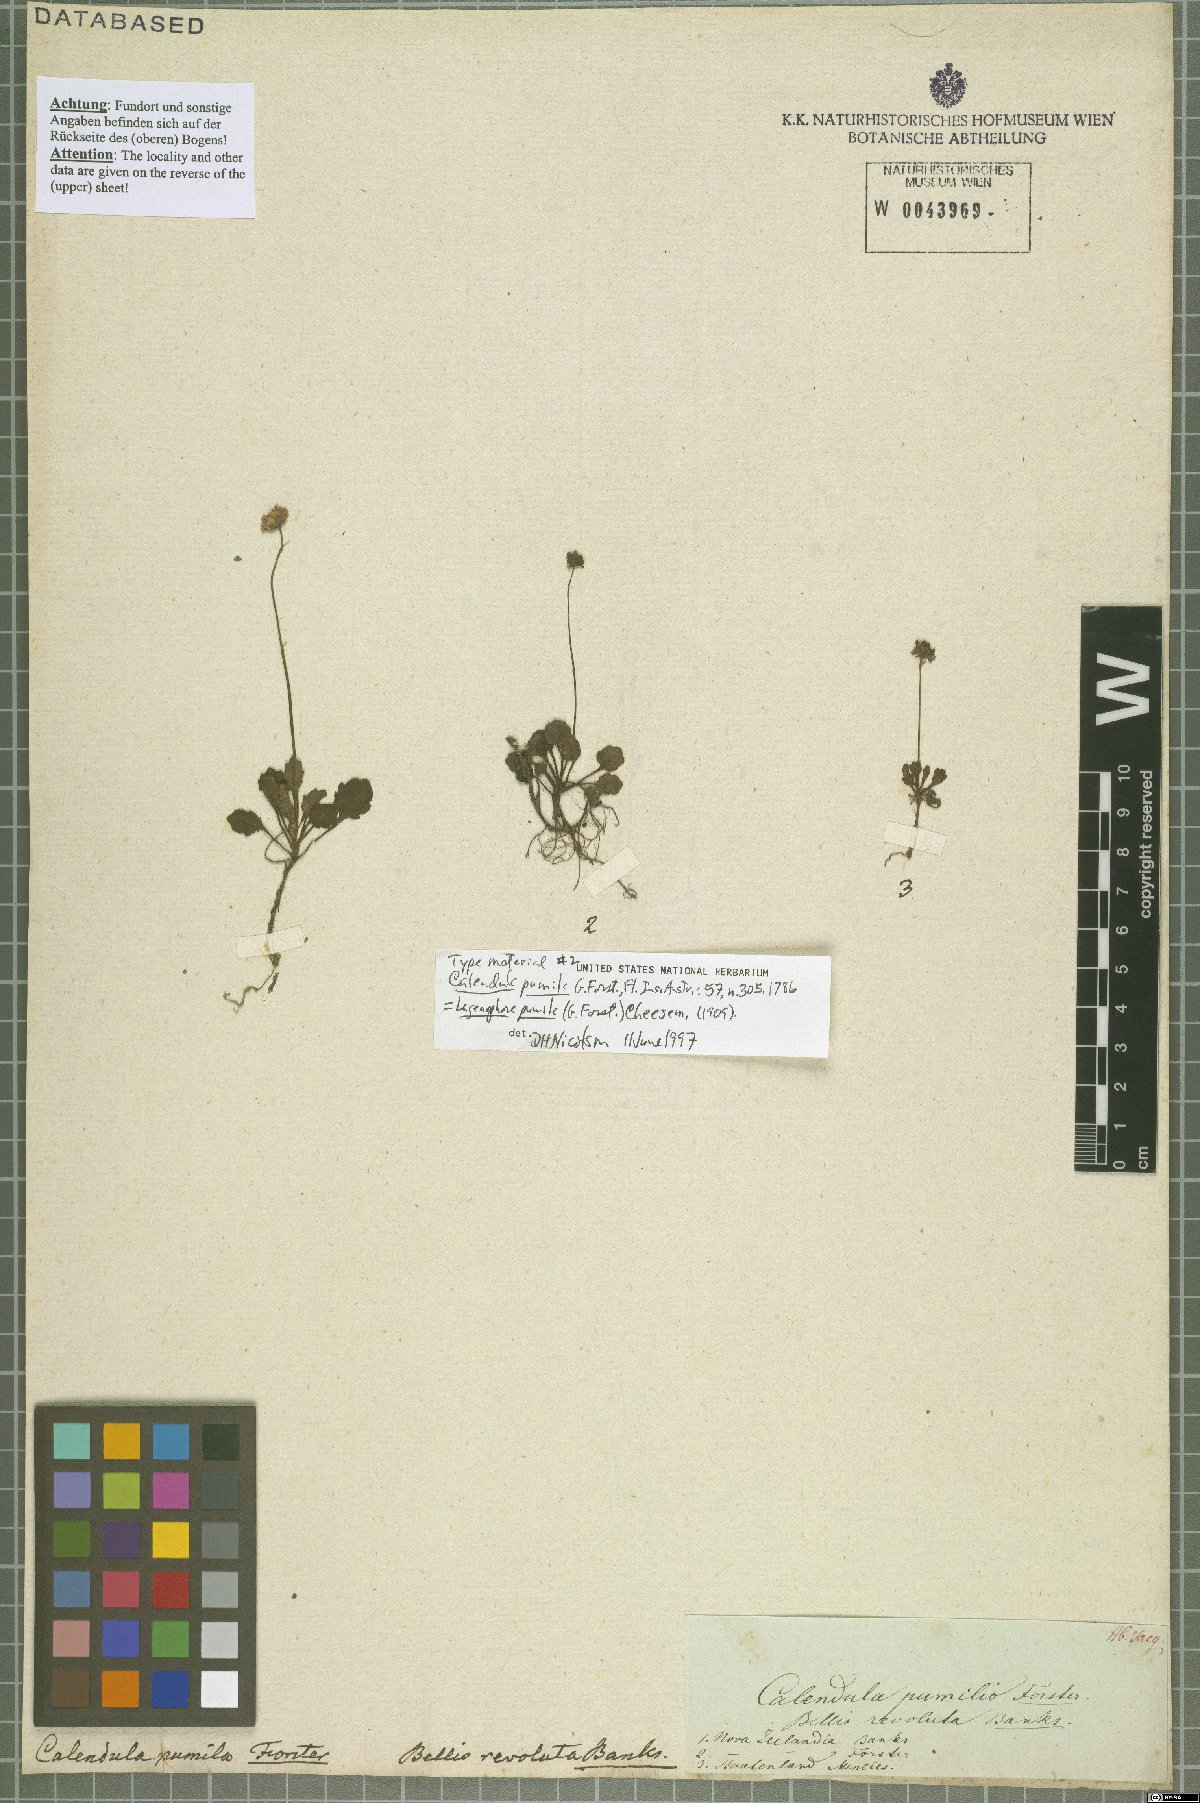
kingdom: Animalia
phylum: Cnidaria
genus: Lagenifera
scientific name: Lagenifera
